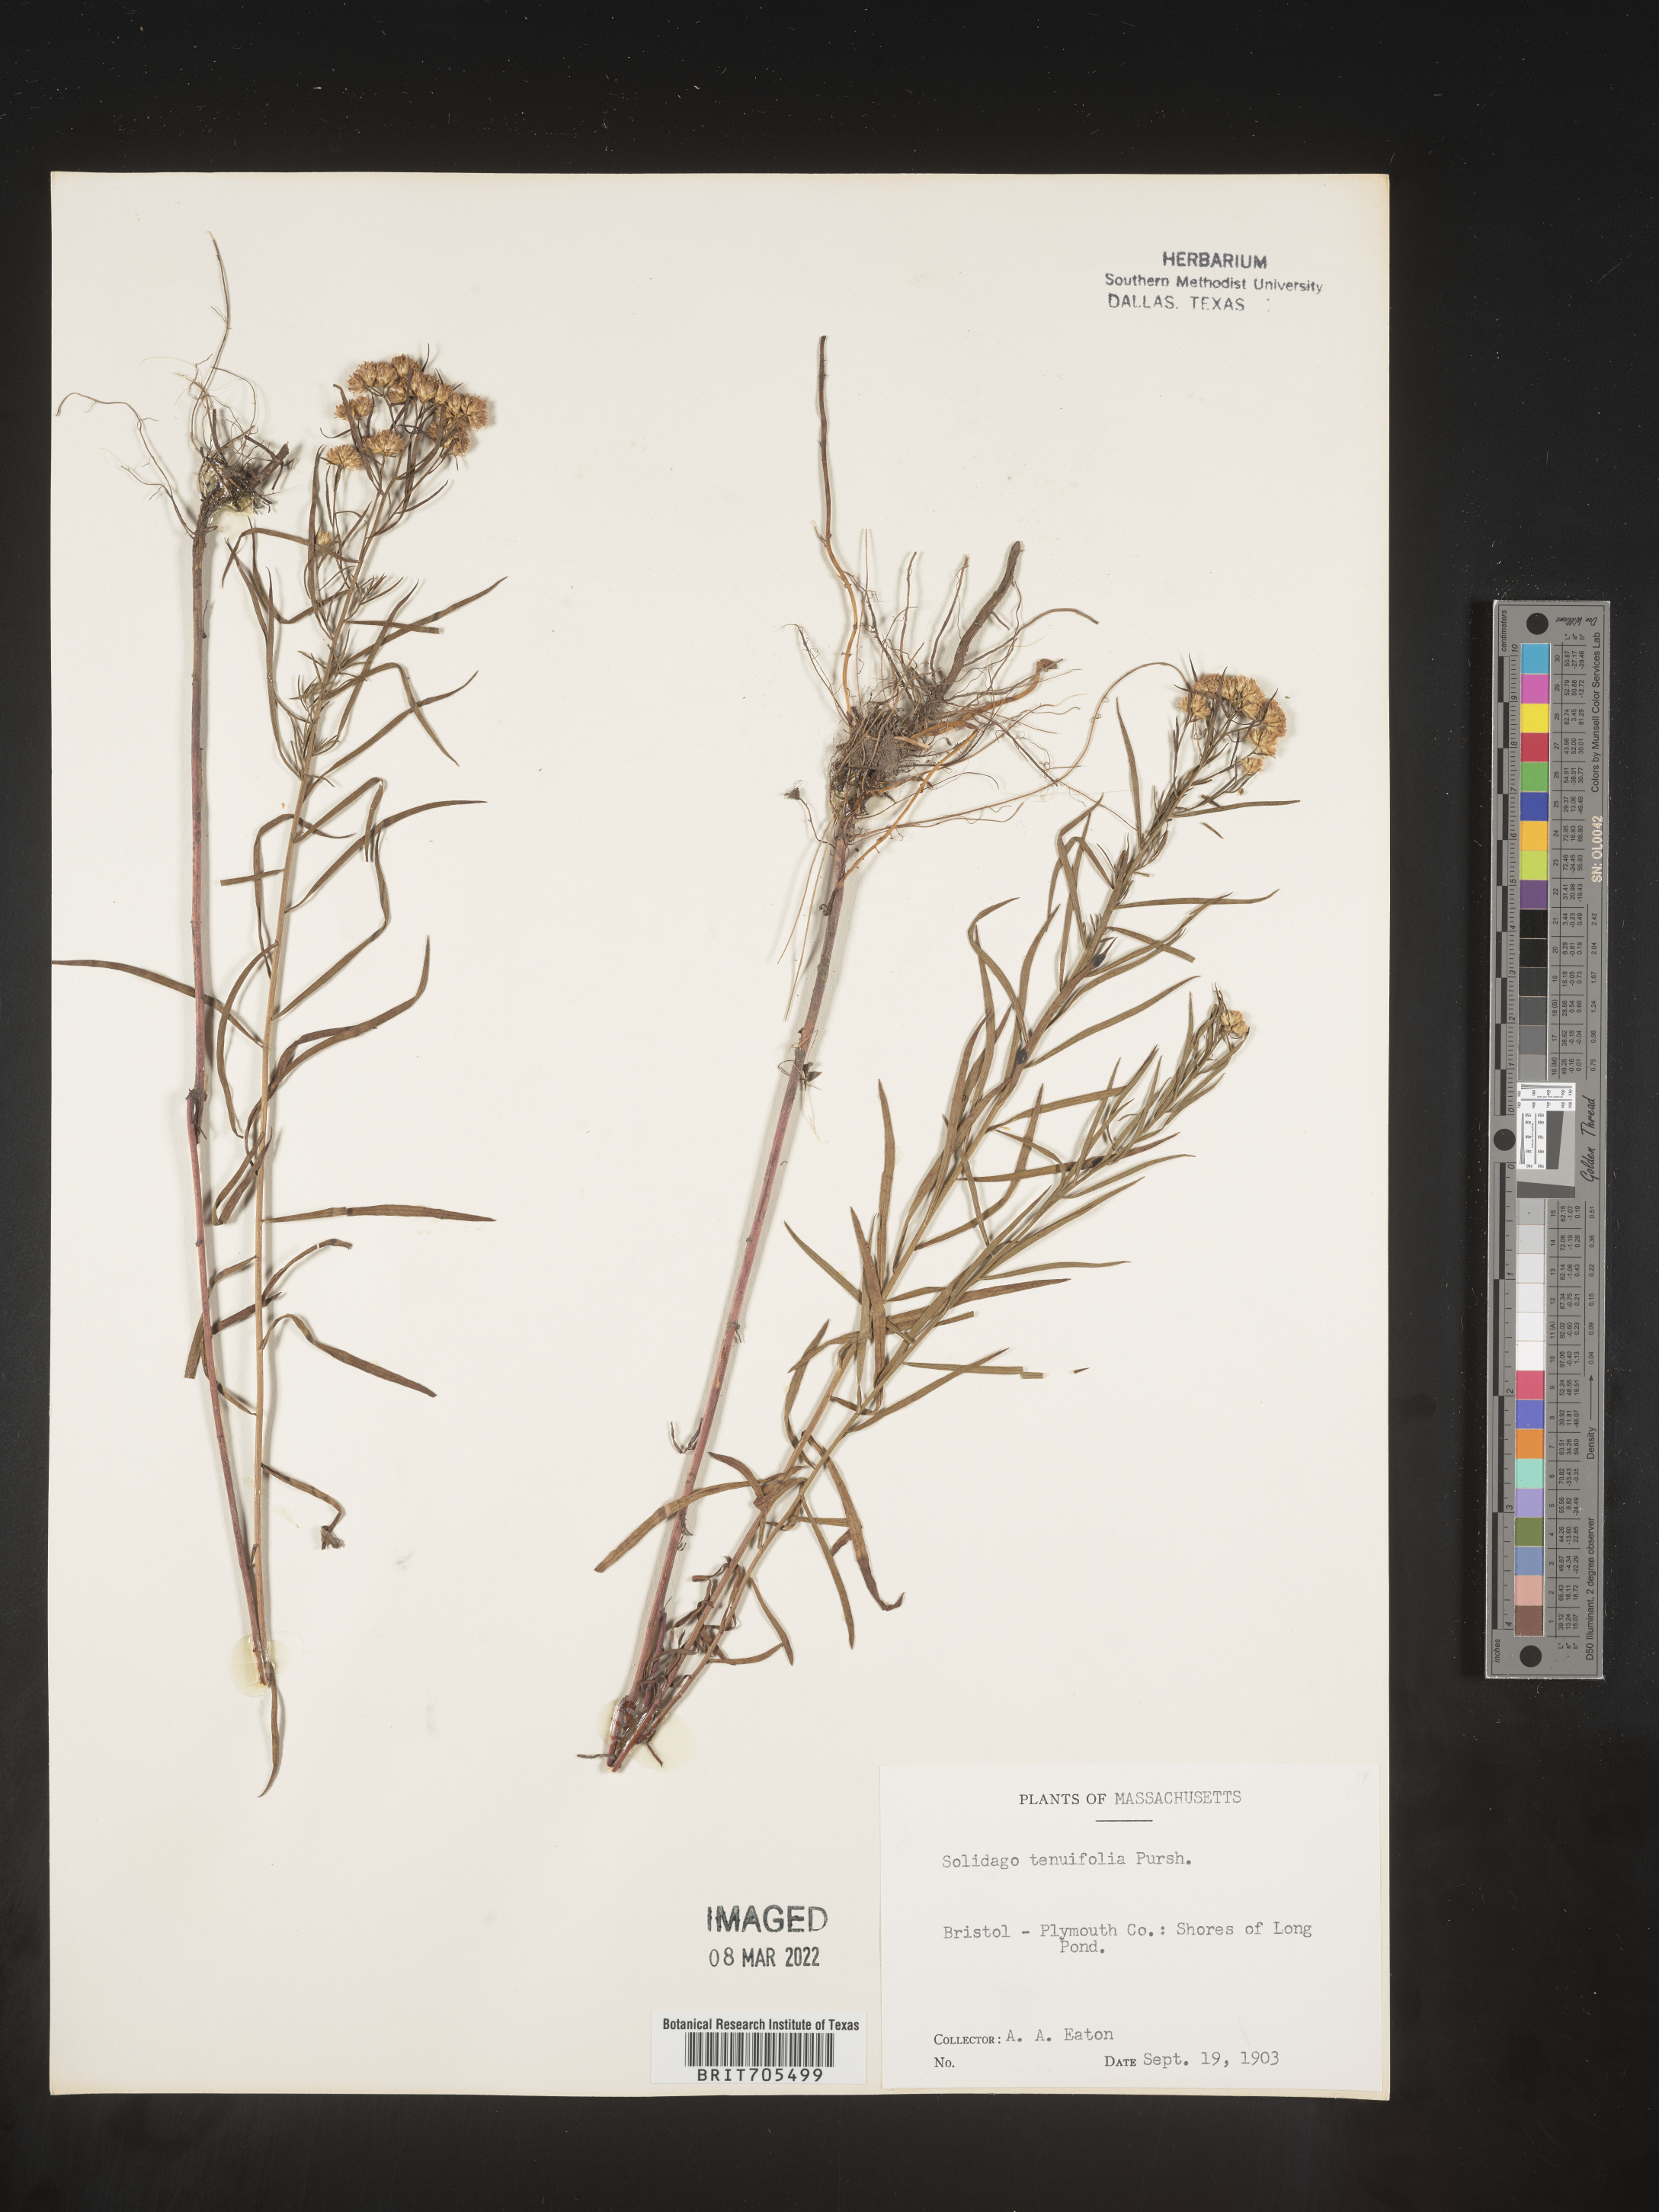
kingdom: Plantae
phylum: Tracheophyta
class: Magnoliopsida
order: Asterales
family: Asteraceae
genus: Euthamia
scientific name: Euthamia caroliniana
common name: Coastal plain goldentop
